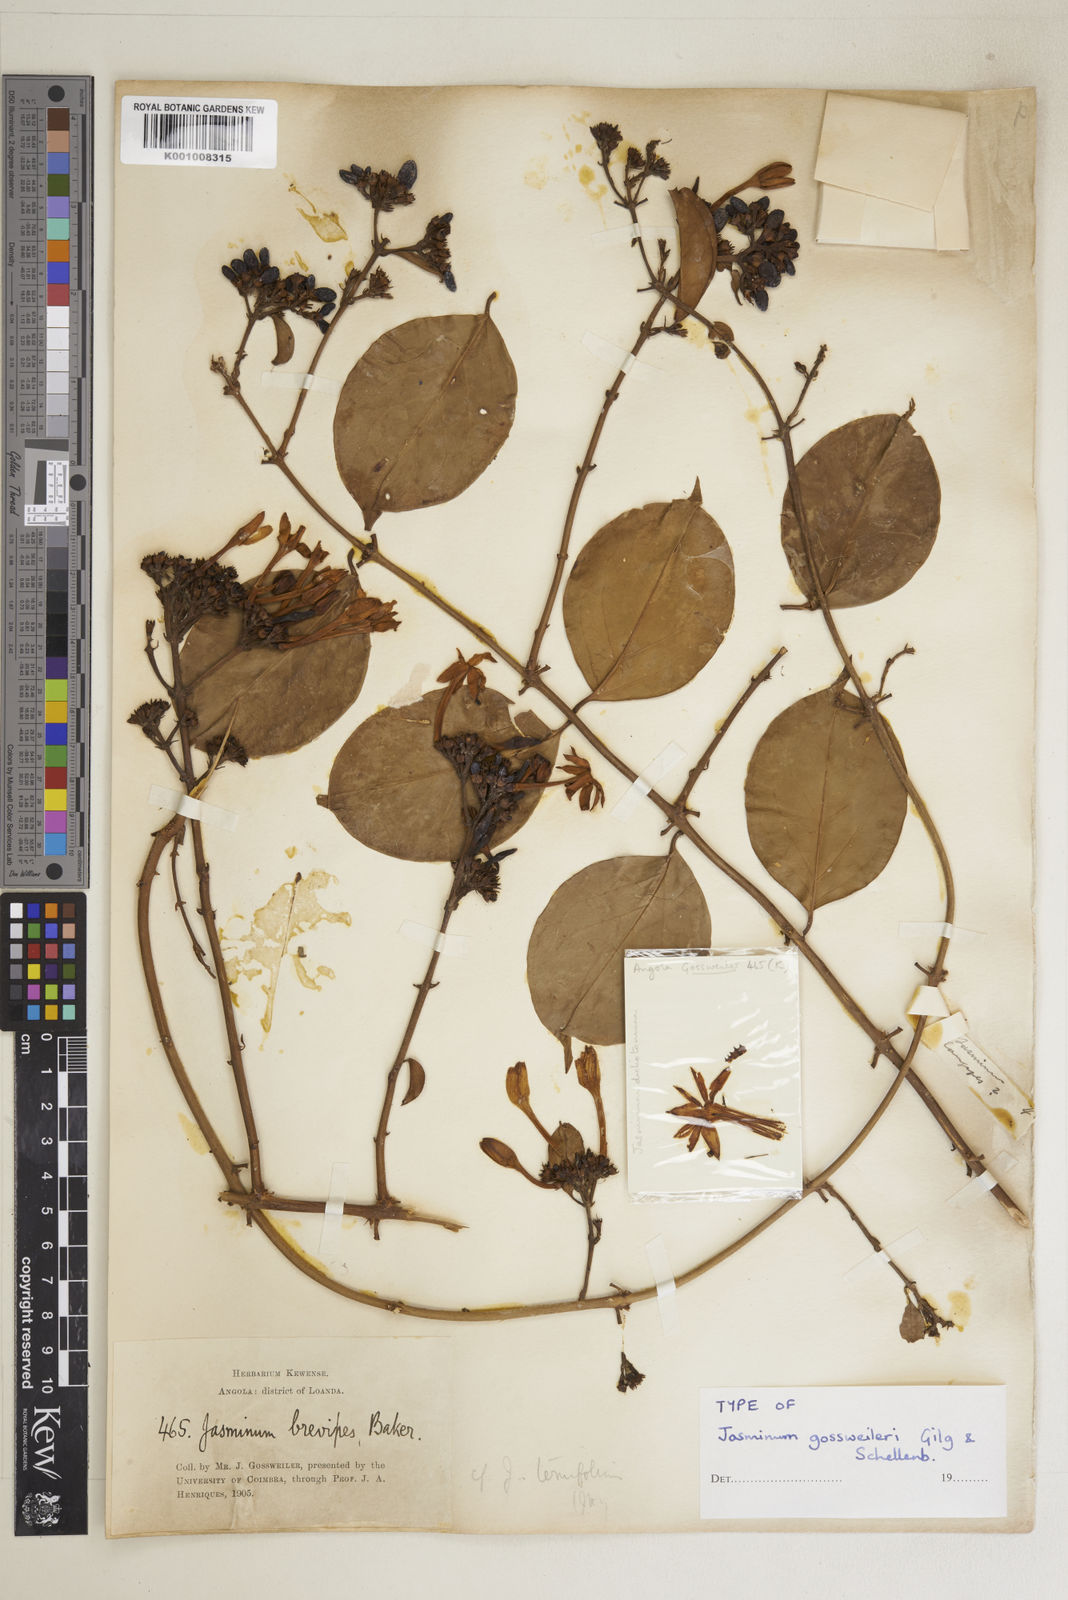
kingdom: Plantae
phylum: Tracheophyta
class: Magnoliopsida
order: Lamiales
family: Oleaceae
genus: Jasminum
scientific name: Jasminum nepalense
